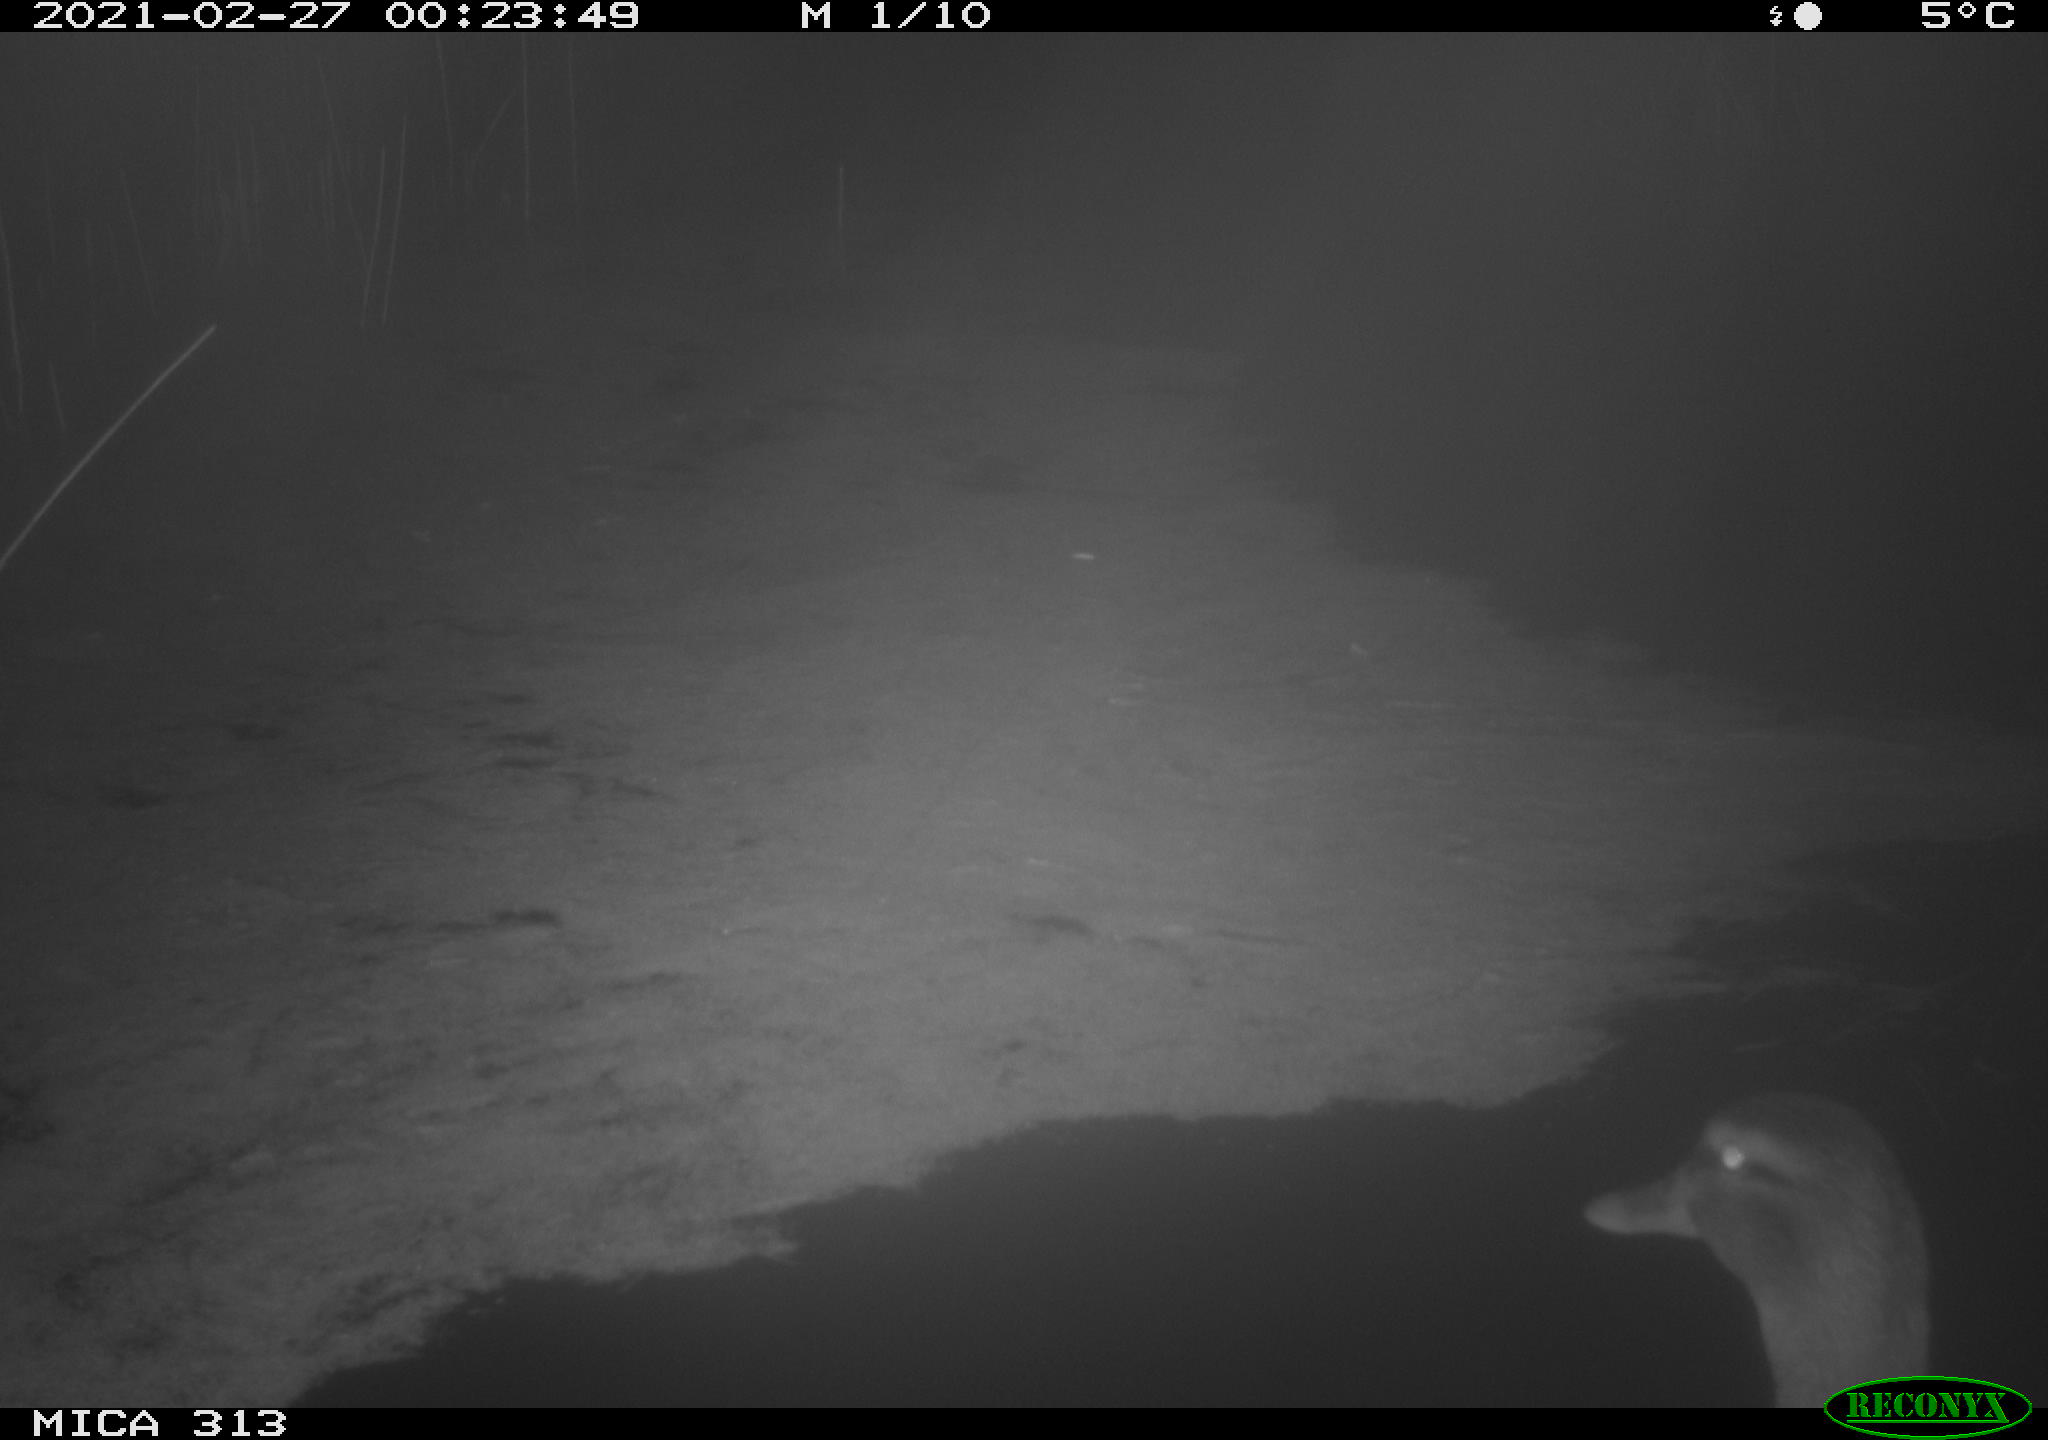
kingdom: Animalia
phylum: Chordata
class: Aves
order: Anseriformes
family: Anatidae
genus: Anas
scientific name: Anas
